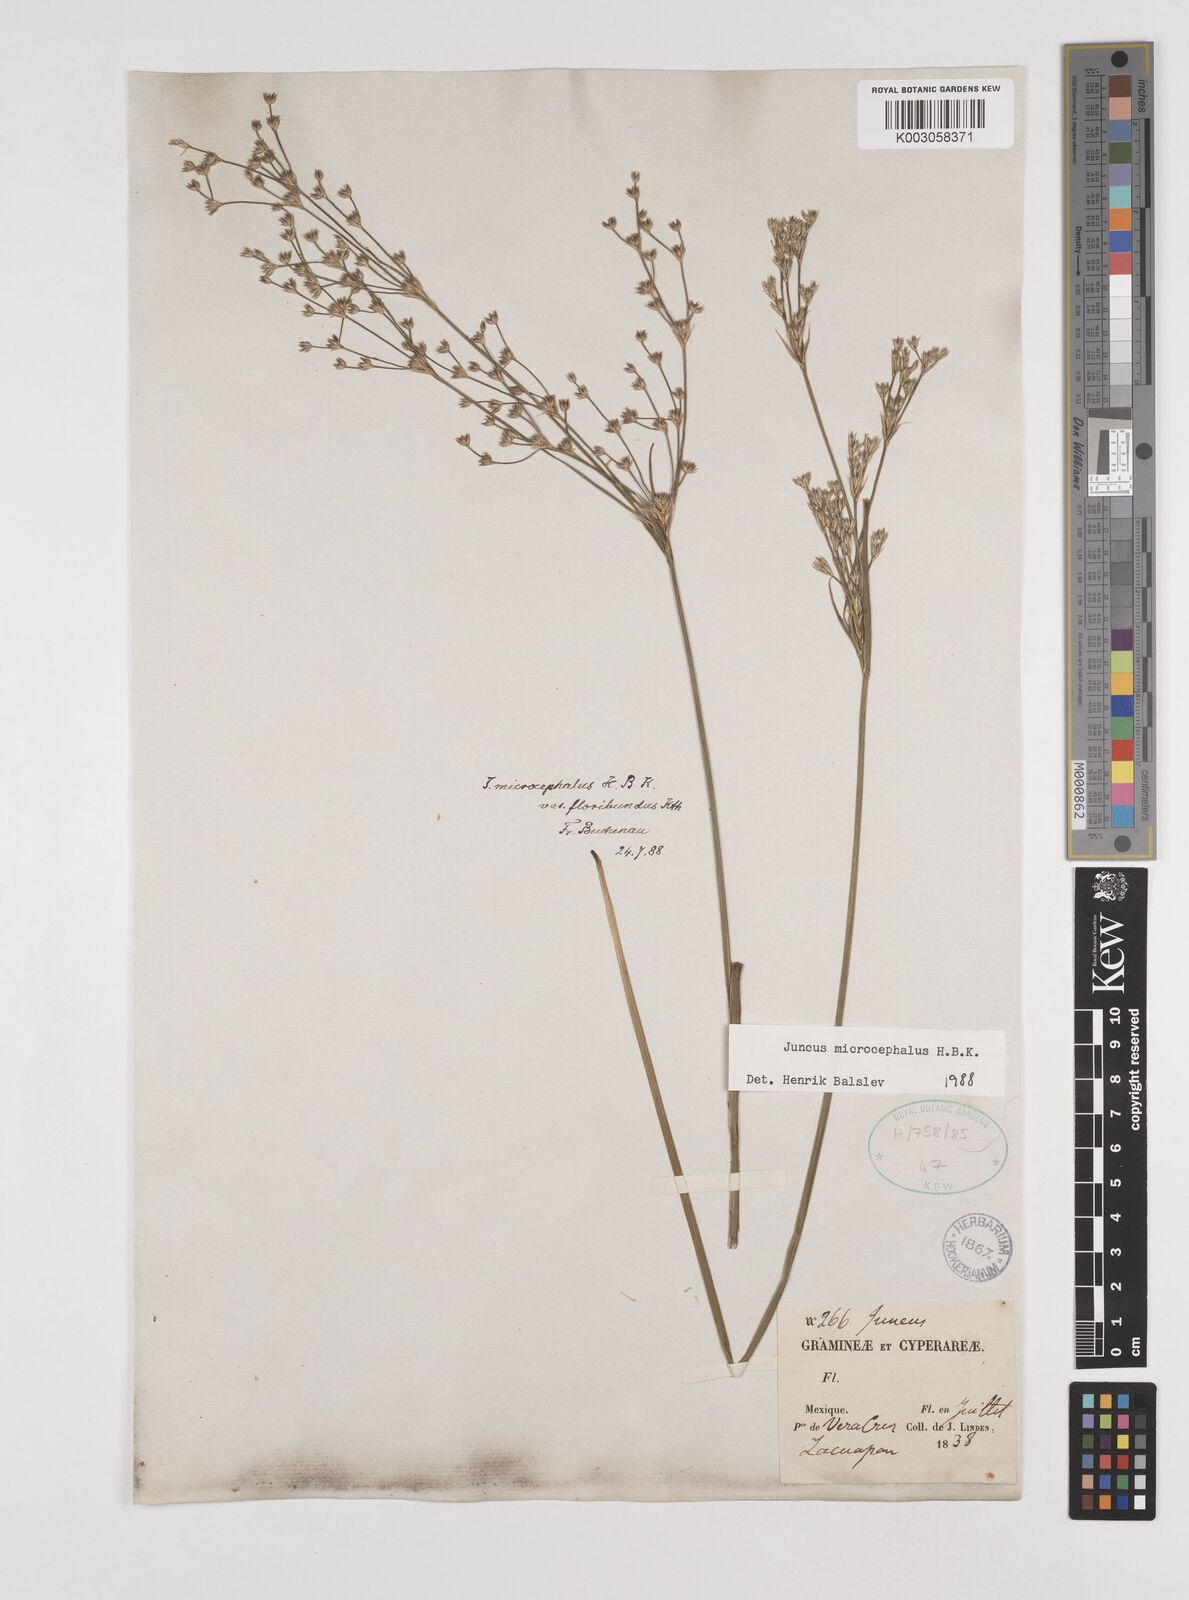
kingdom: Plantae
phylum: Tracheophyta
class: Liliopsida
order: Poales
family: Juncaceae
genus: Juncus
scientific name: Juncus microcephalus
